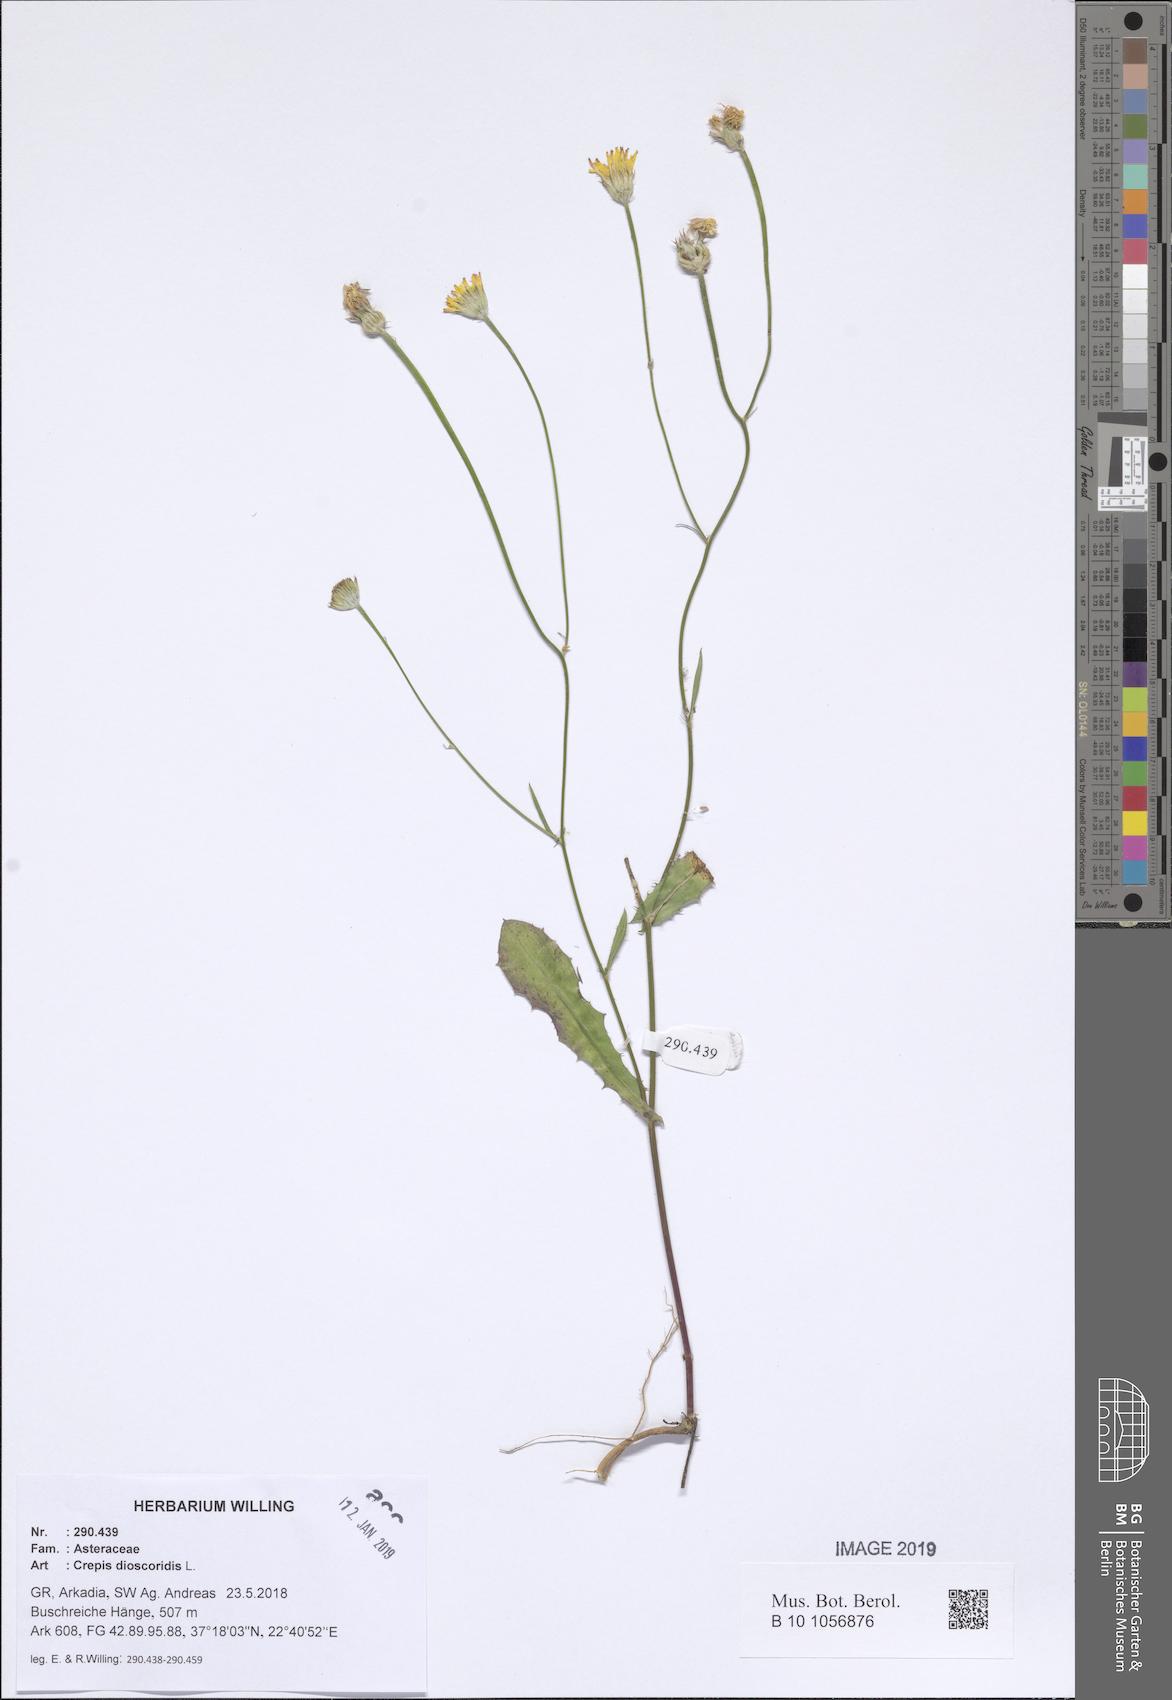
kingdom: Plantae
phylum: Tracheophyta
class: Magnoliopsida
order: Asterales
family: Asteraceae
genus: Crepis
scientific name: Crepis dioscoridis
